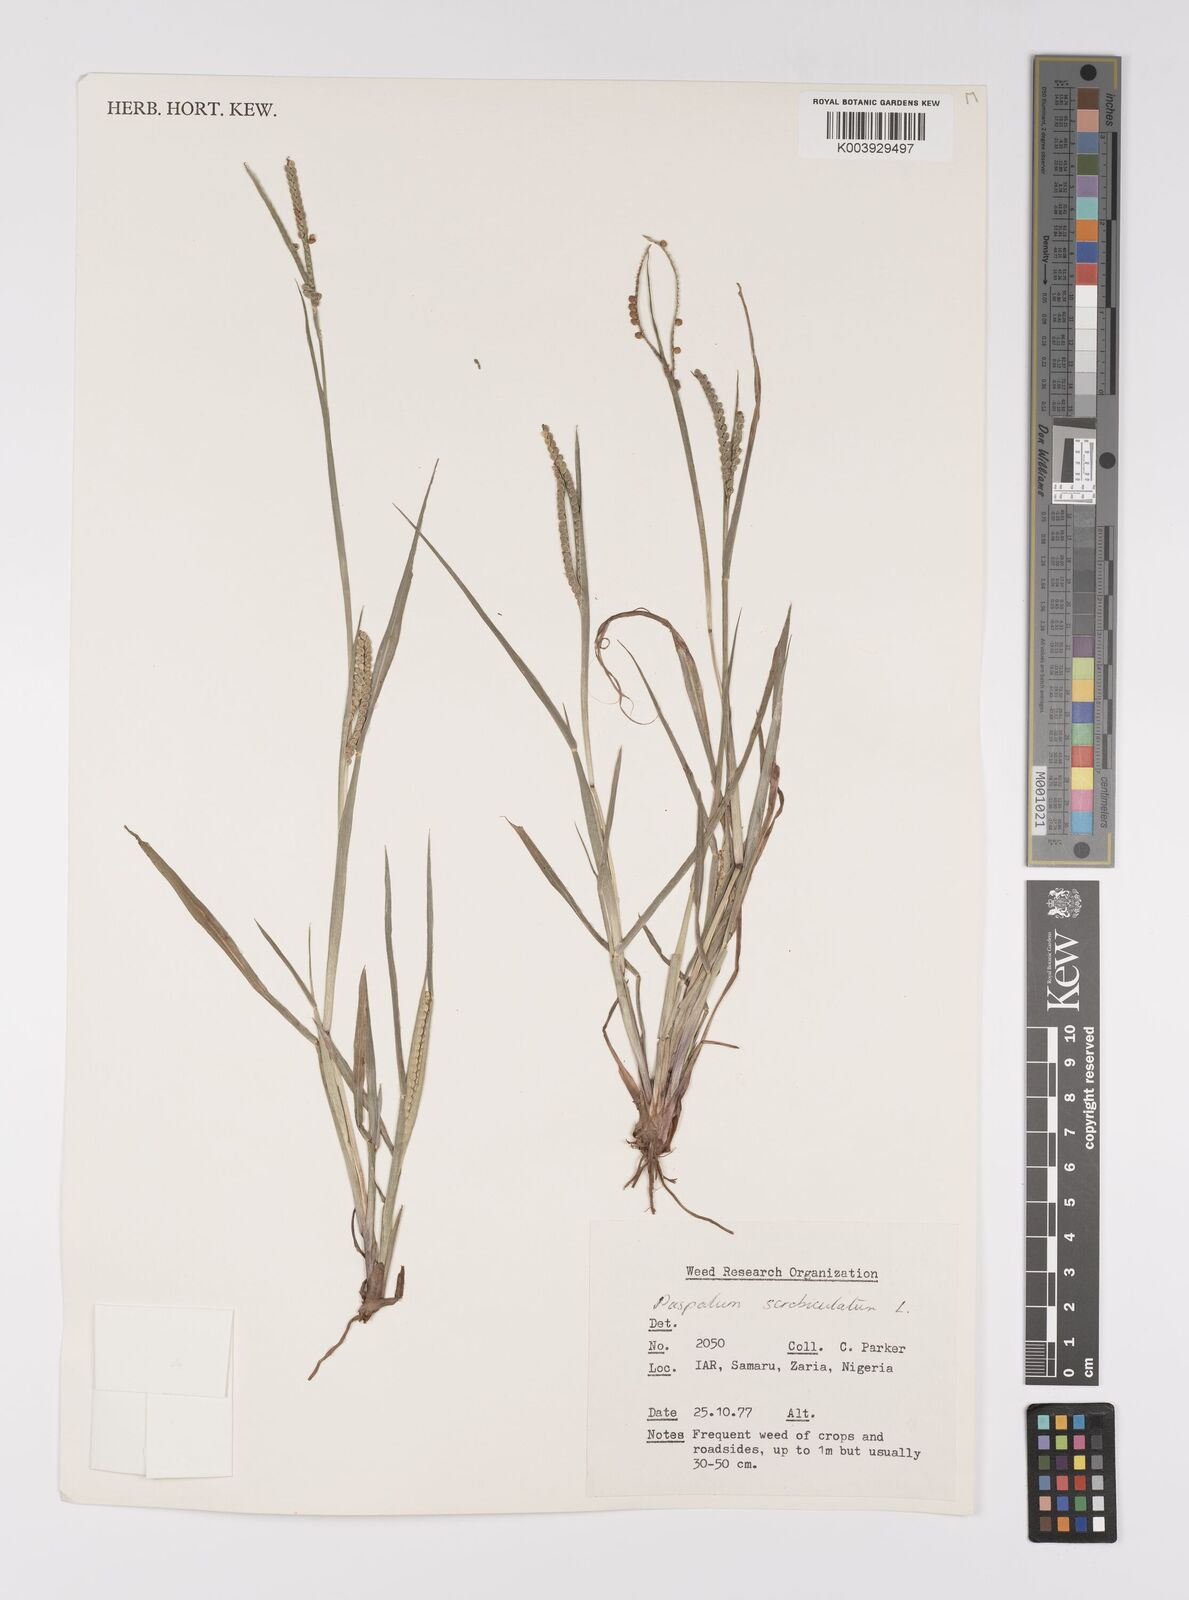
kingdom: Plantae
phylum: Tracheophyta
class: Liliopsida
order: Poales
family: Poaceae
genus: Paspalum
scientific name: Paspalum scrobiculatum
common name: Kodo millet
